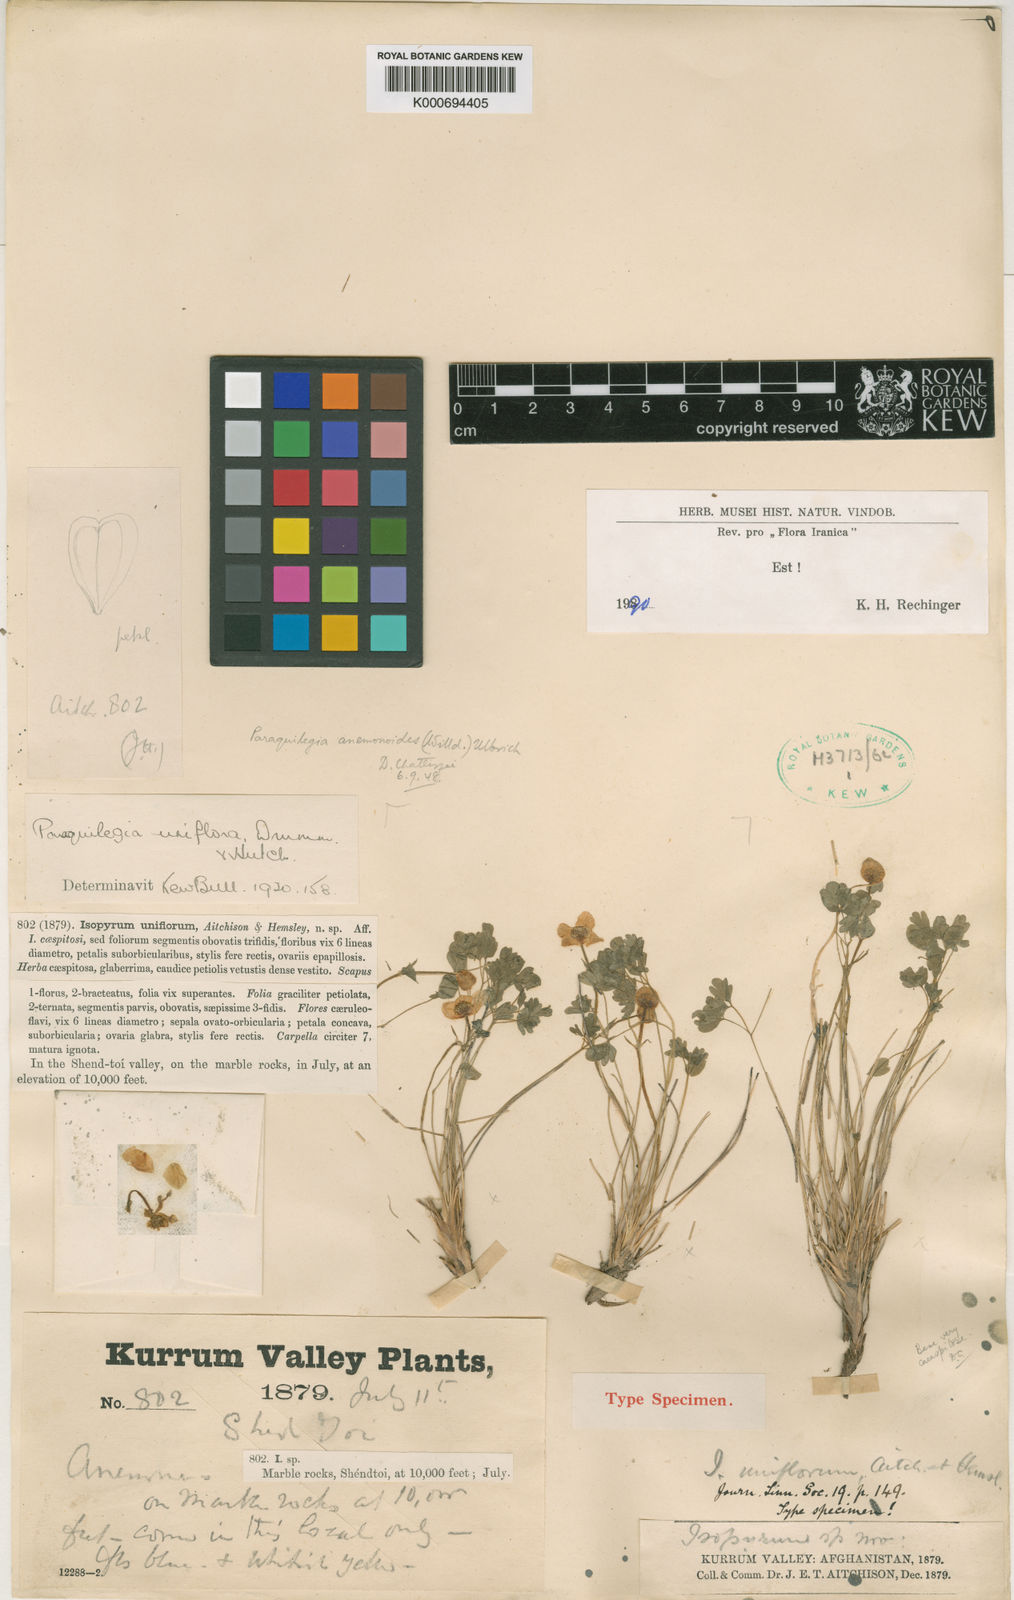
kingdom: Plantae
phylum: Tracheophyta
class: Magnoliopsida
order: Ranunculales
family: Ranunculaceae
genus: Paraquilegia
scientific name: Paraquilegia anemonoides
